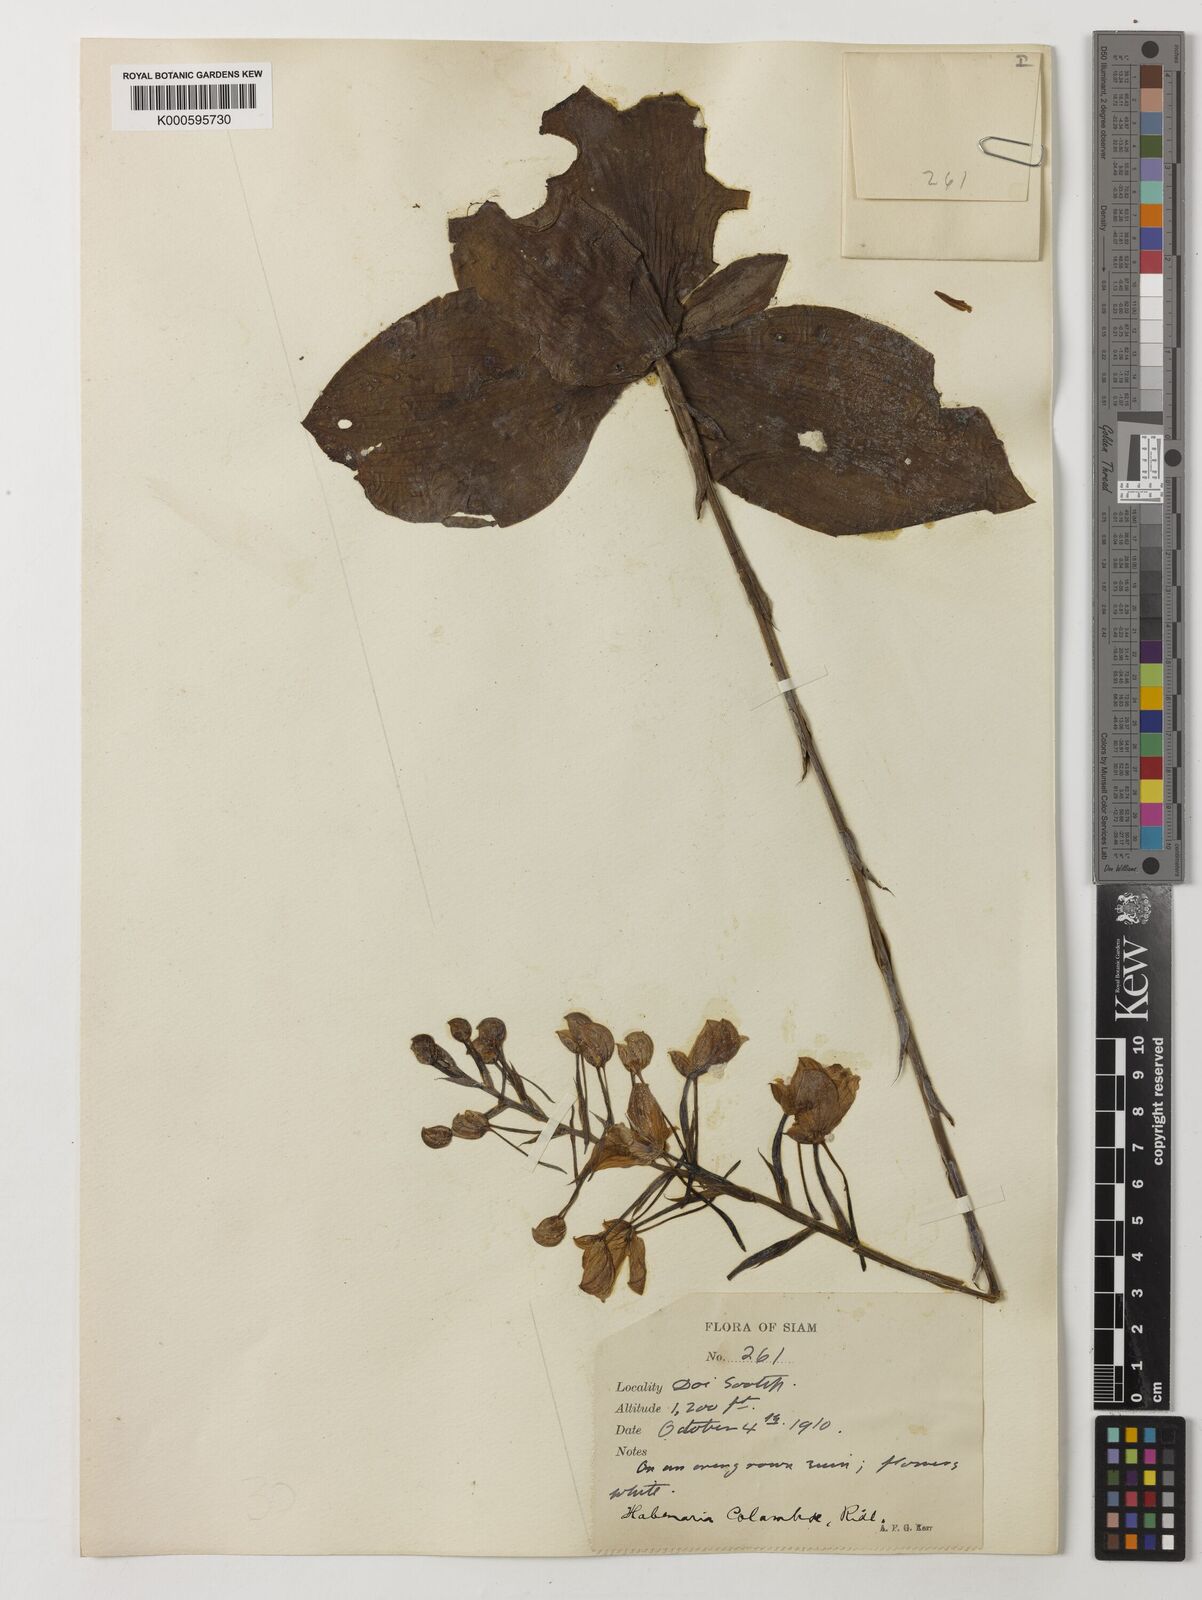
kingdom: Plantae
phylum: Tracheophyta
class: Liliopsida
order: Asparagales
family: Orchidaceae
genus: Habenaria
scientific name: Habenaria lindleyana
